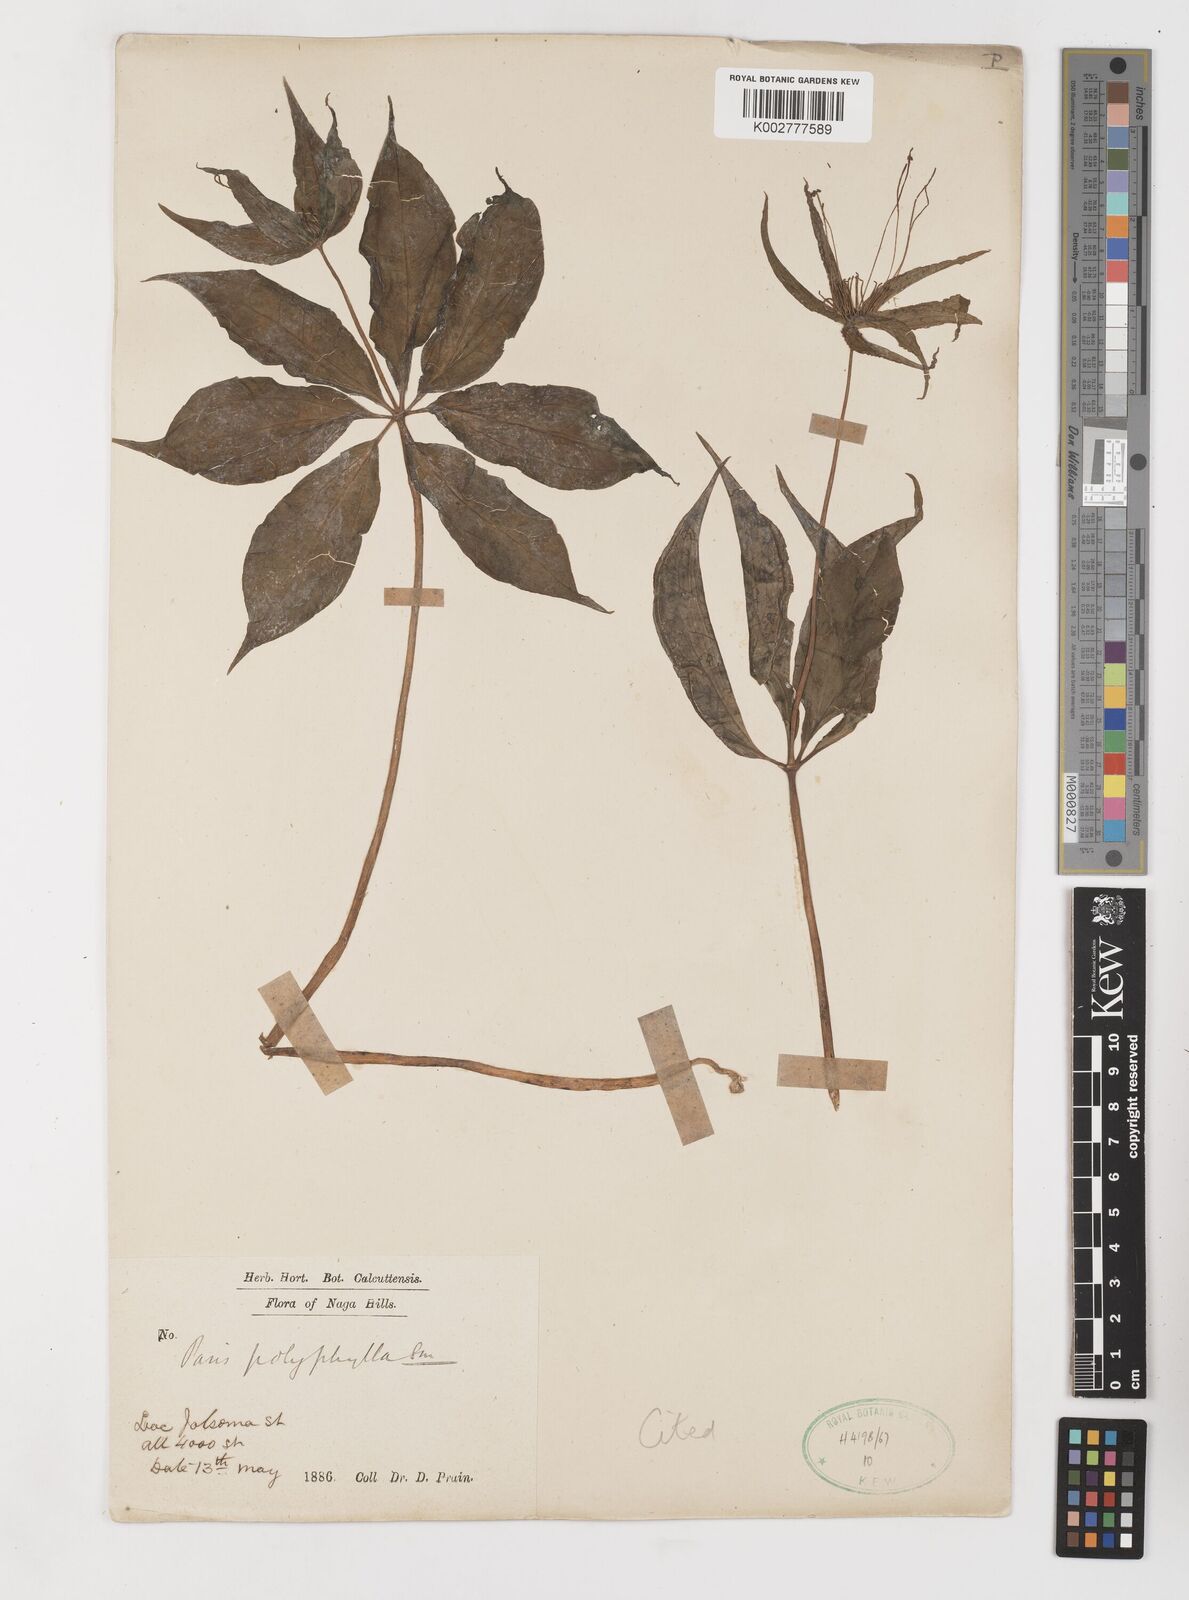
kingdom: Plantae
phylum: Tracheophyta
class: Liliopsida
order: Liliales
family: Melanthiaceae
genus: Paris
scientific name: Paris polyphylla
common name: Love apple
